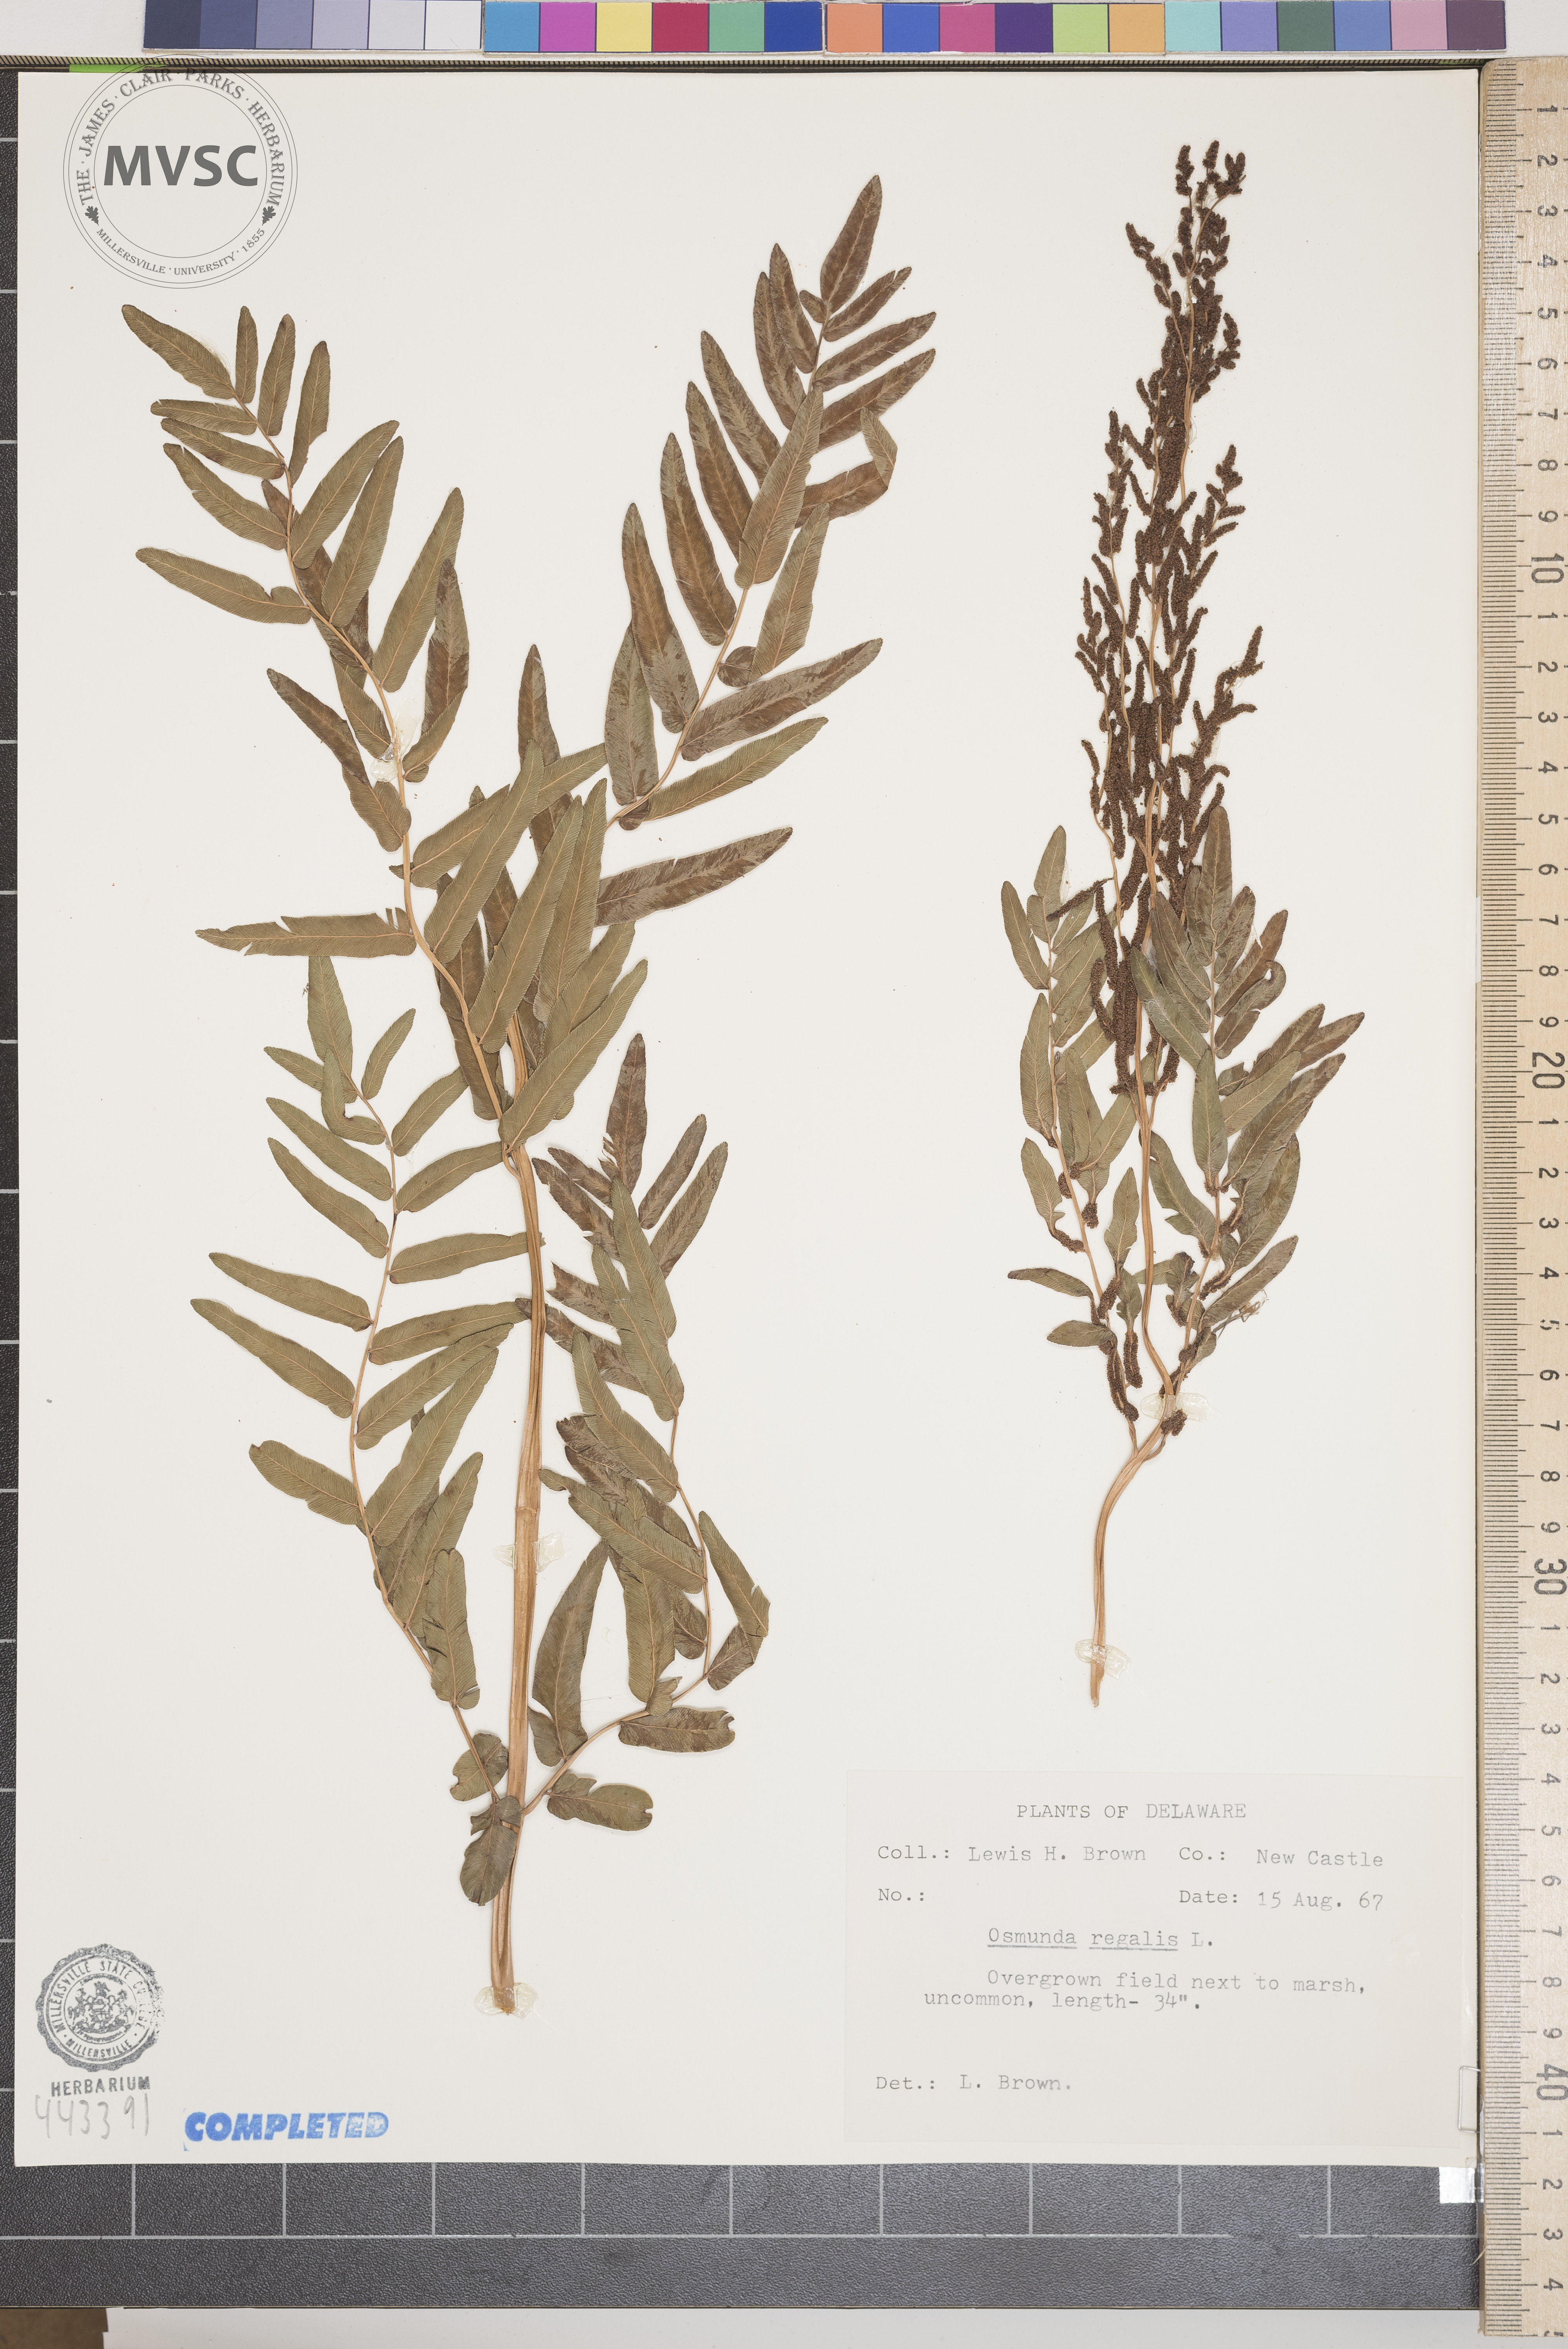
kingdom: Plantae
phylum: Tracheophyta
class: Polypodiopsida
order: Osmundales
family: Osmundaceae
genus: Osmunda
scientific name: Osmunda regalis
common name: Royal fern
